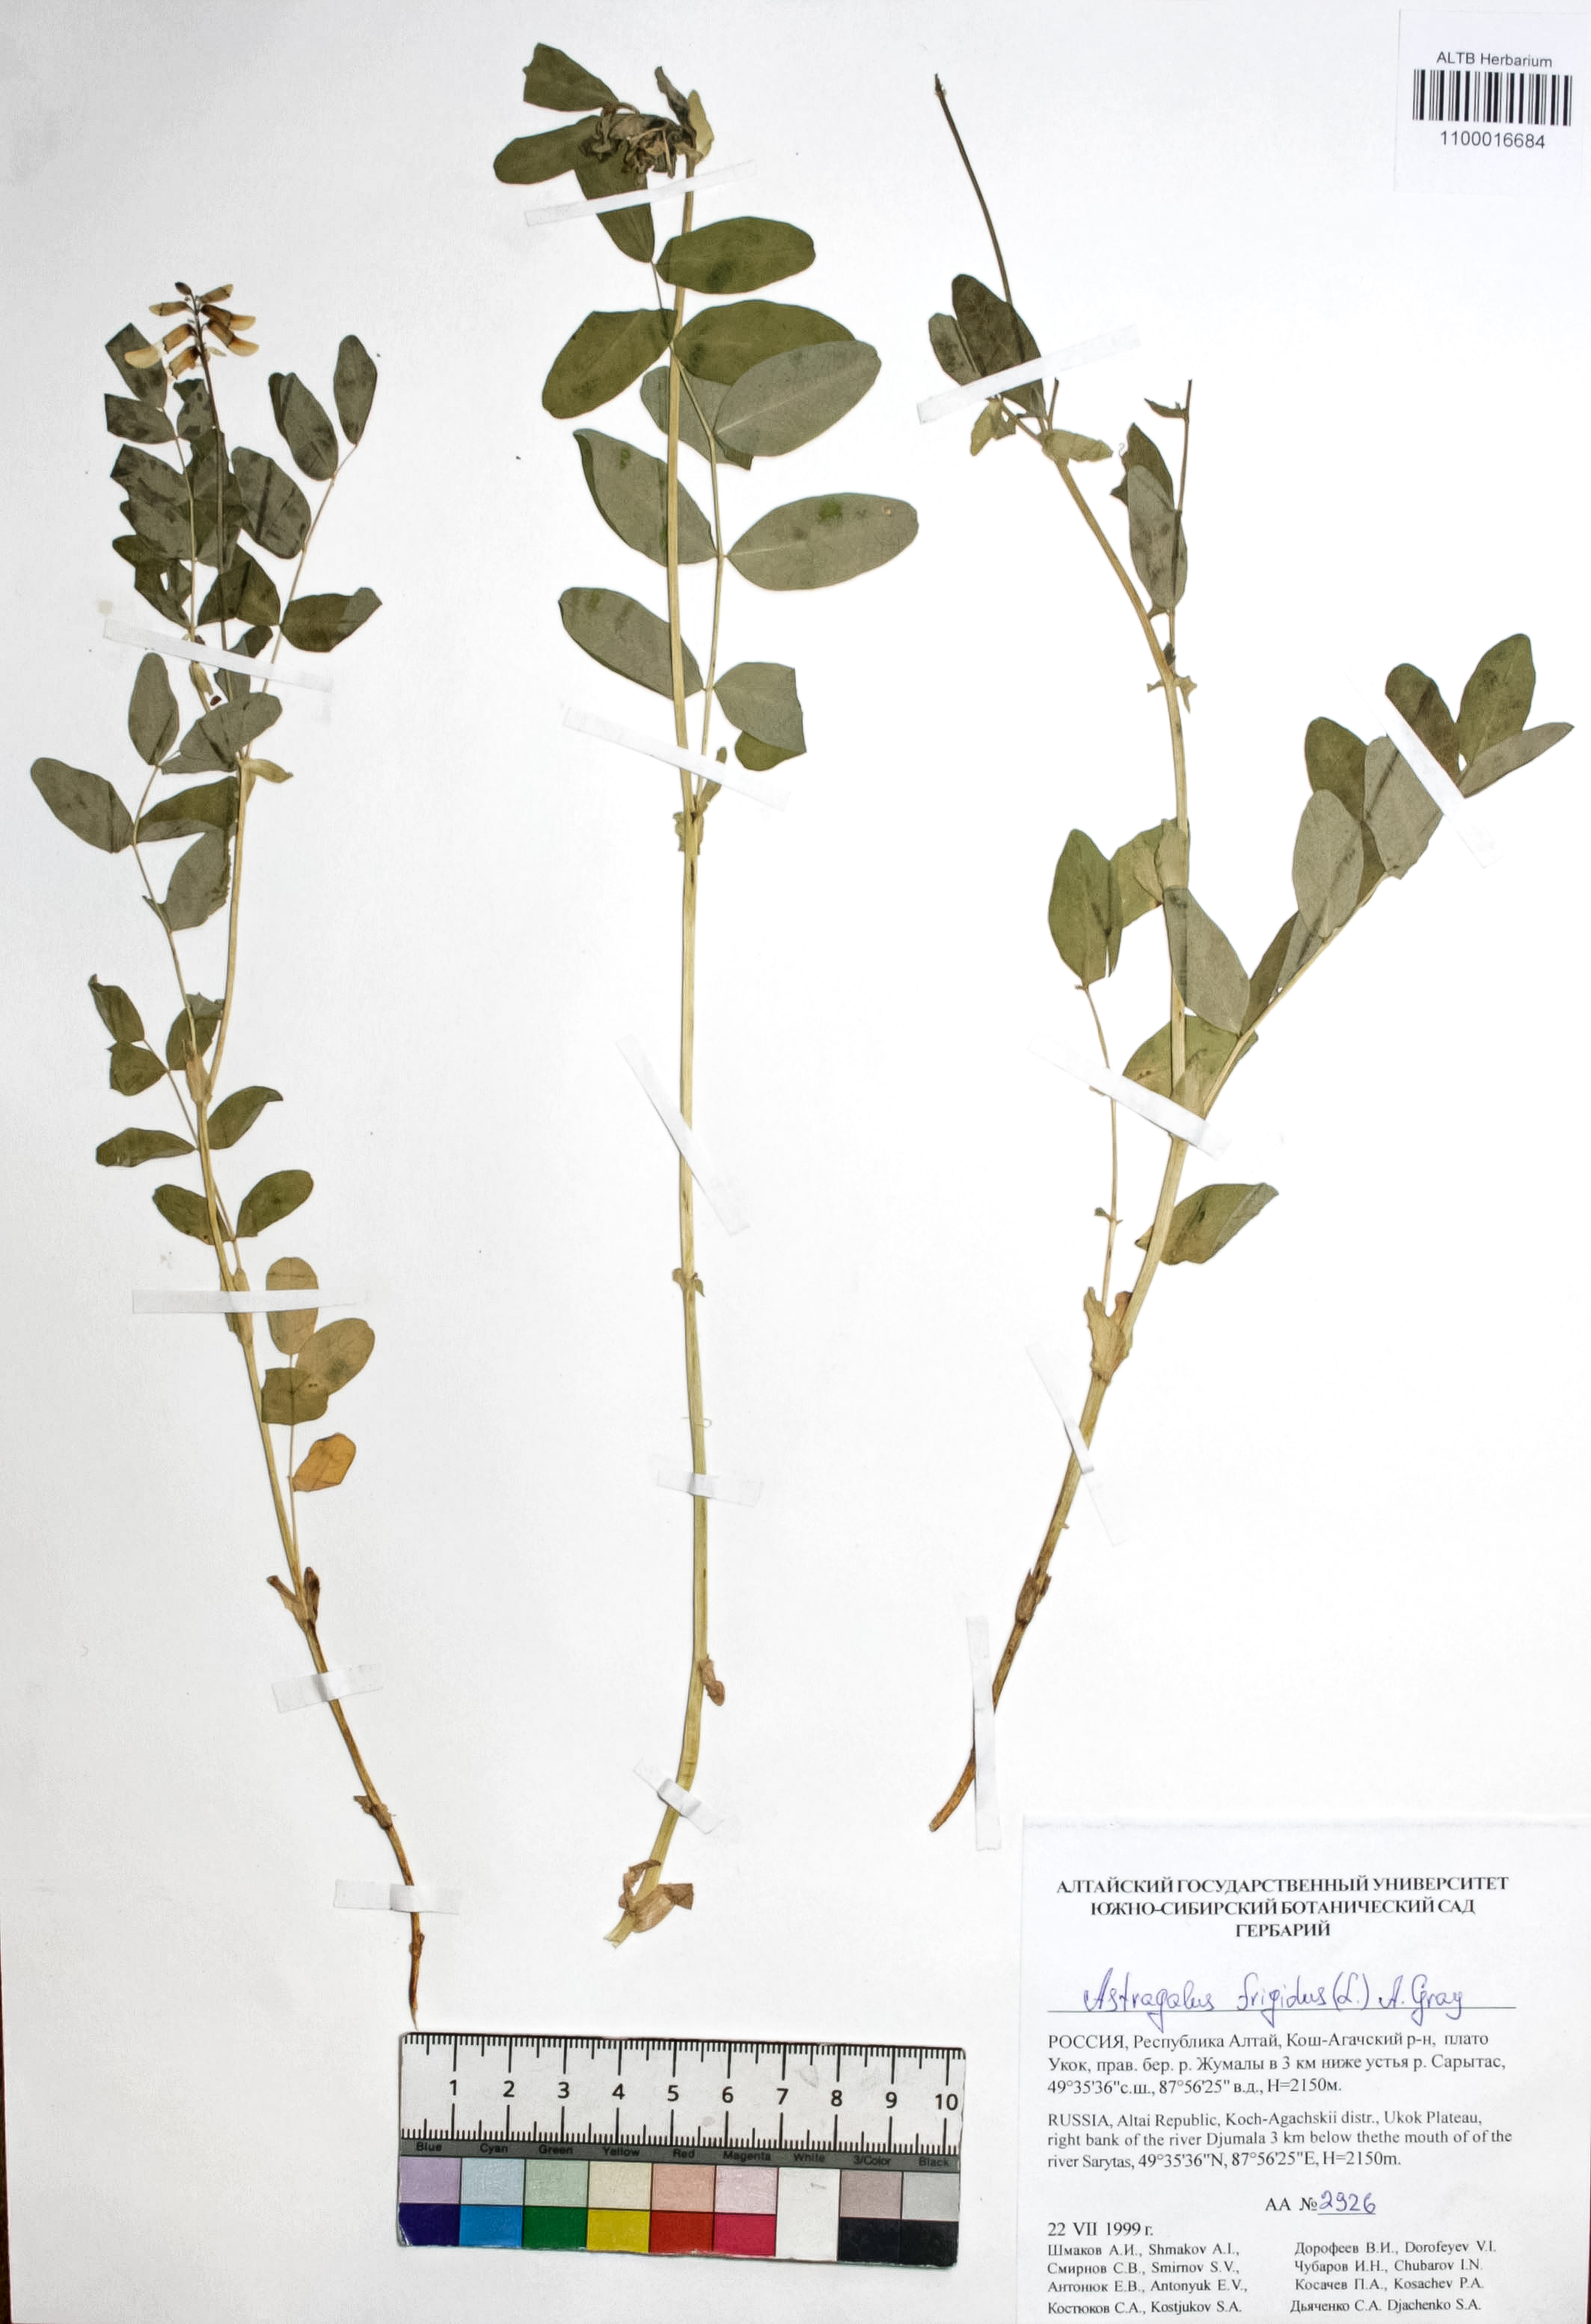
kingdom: Plantae
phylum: Tracheophyta
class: Magnoliopsida
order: Fabales
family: Fabaceae
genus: Astragalus
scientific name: Astragalus frigidus
